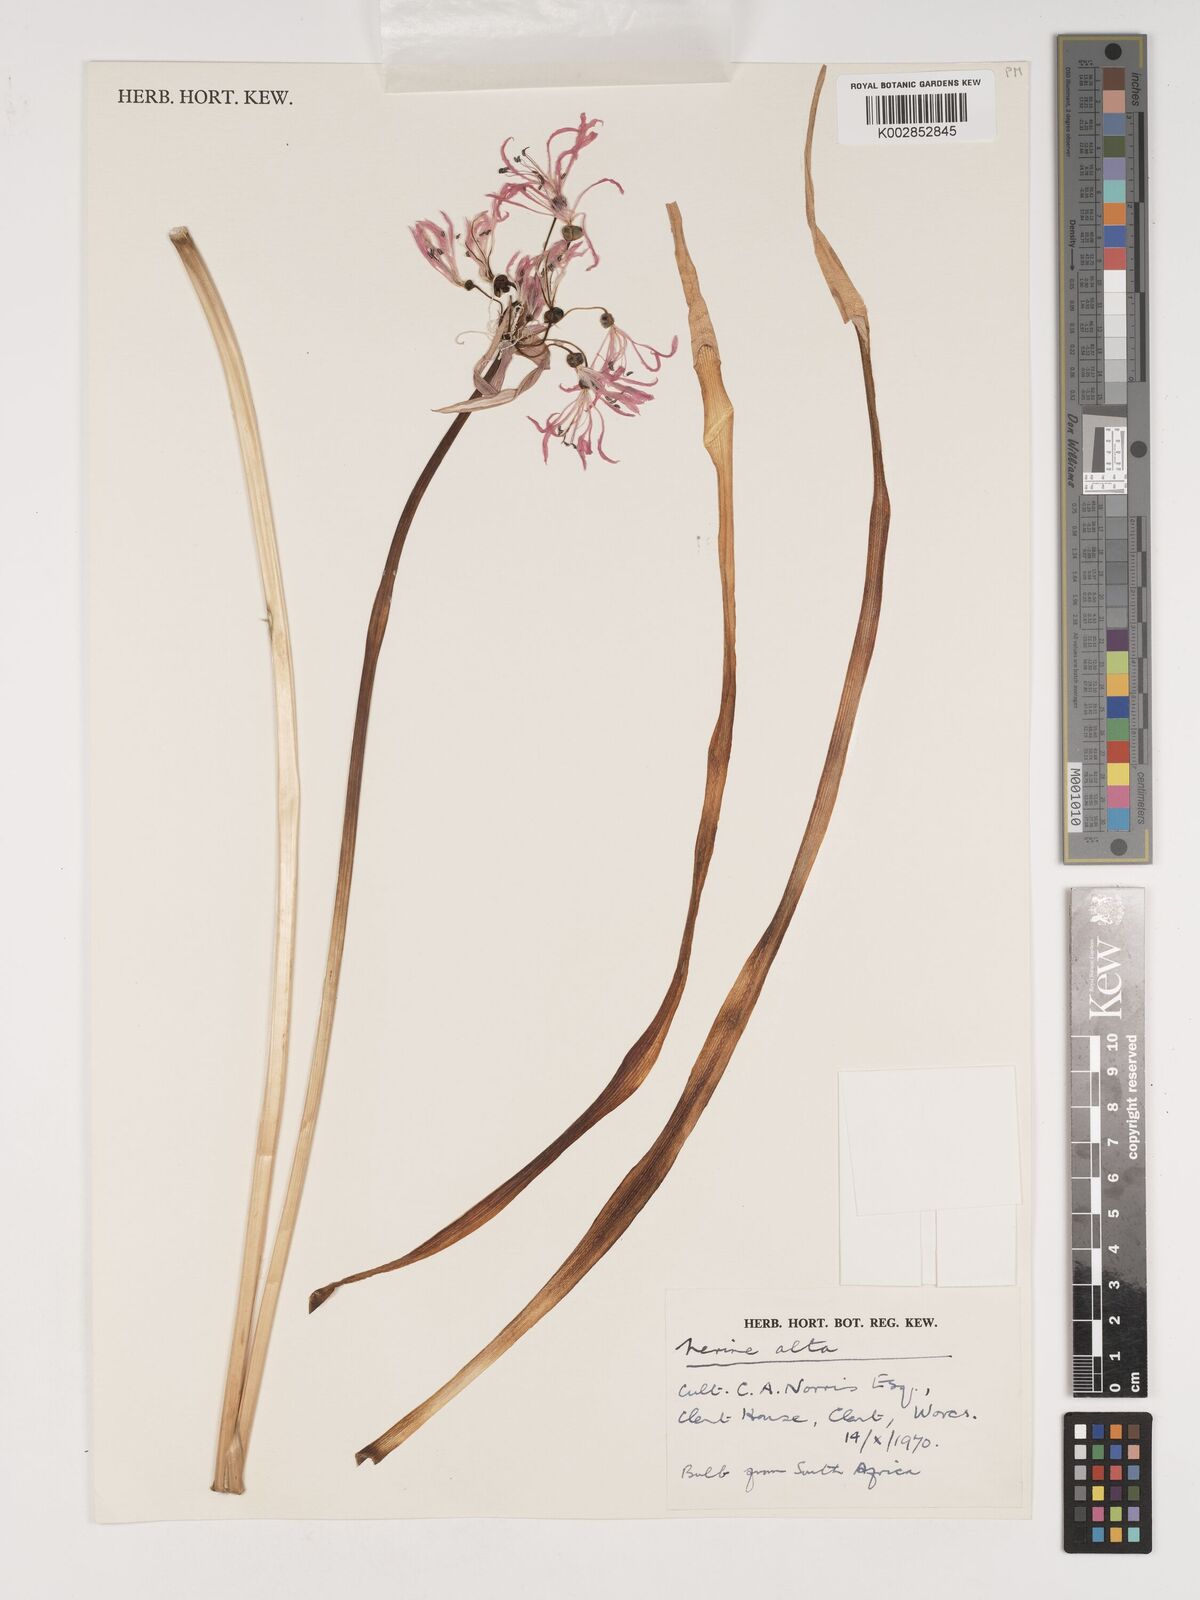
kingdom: Plantae
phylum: Tracheophyta
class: Liliopsida
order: Asparagales
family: Amaryllidaceae
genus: Nerine
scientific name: Nerine undulata
